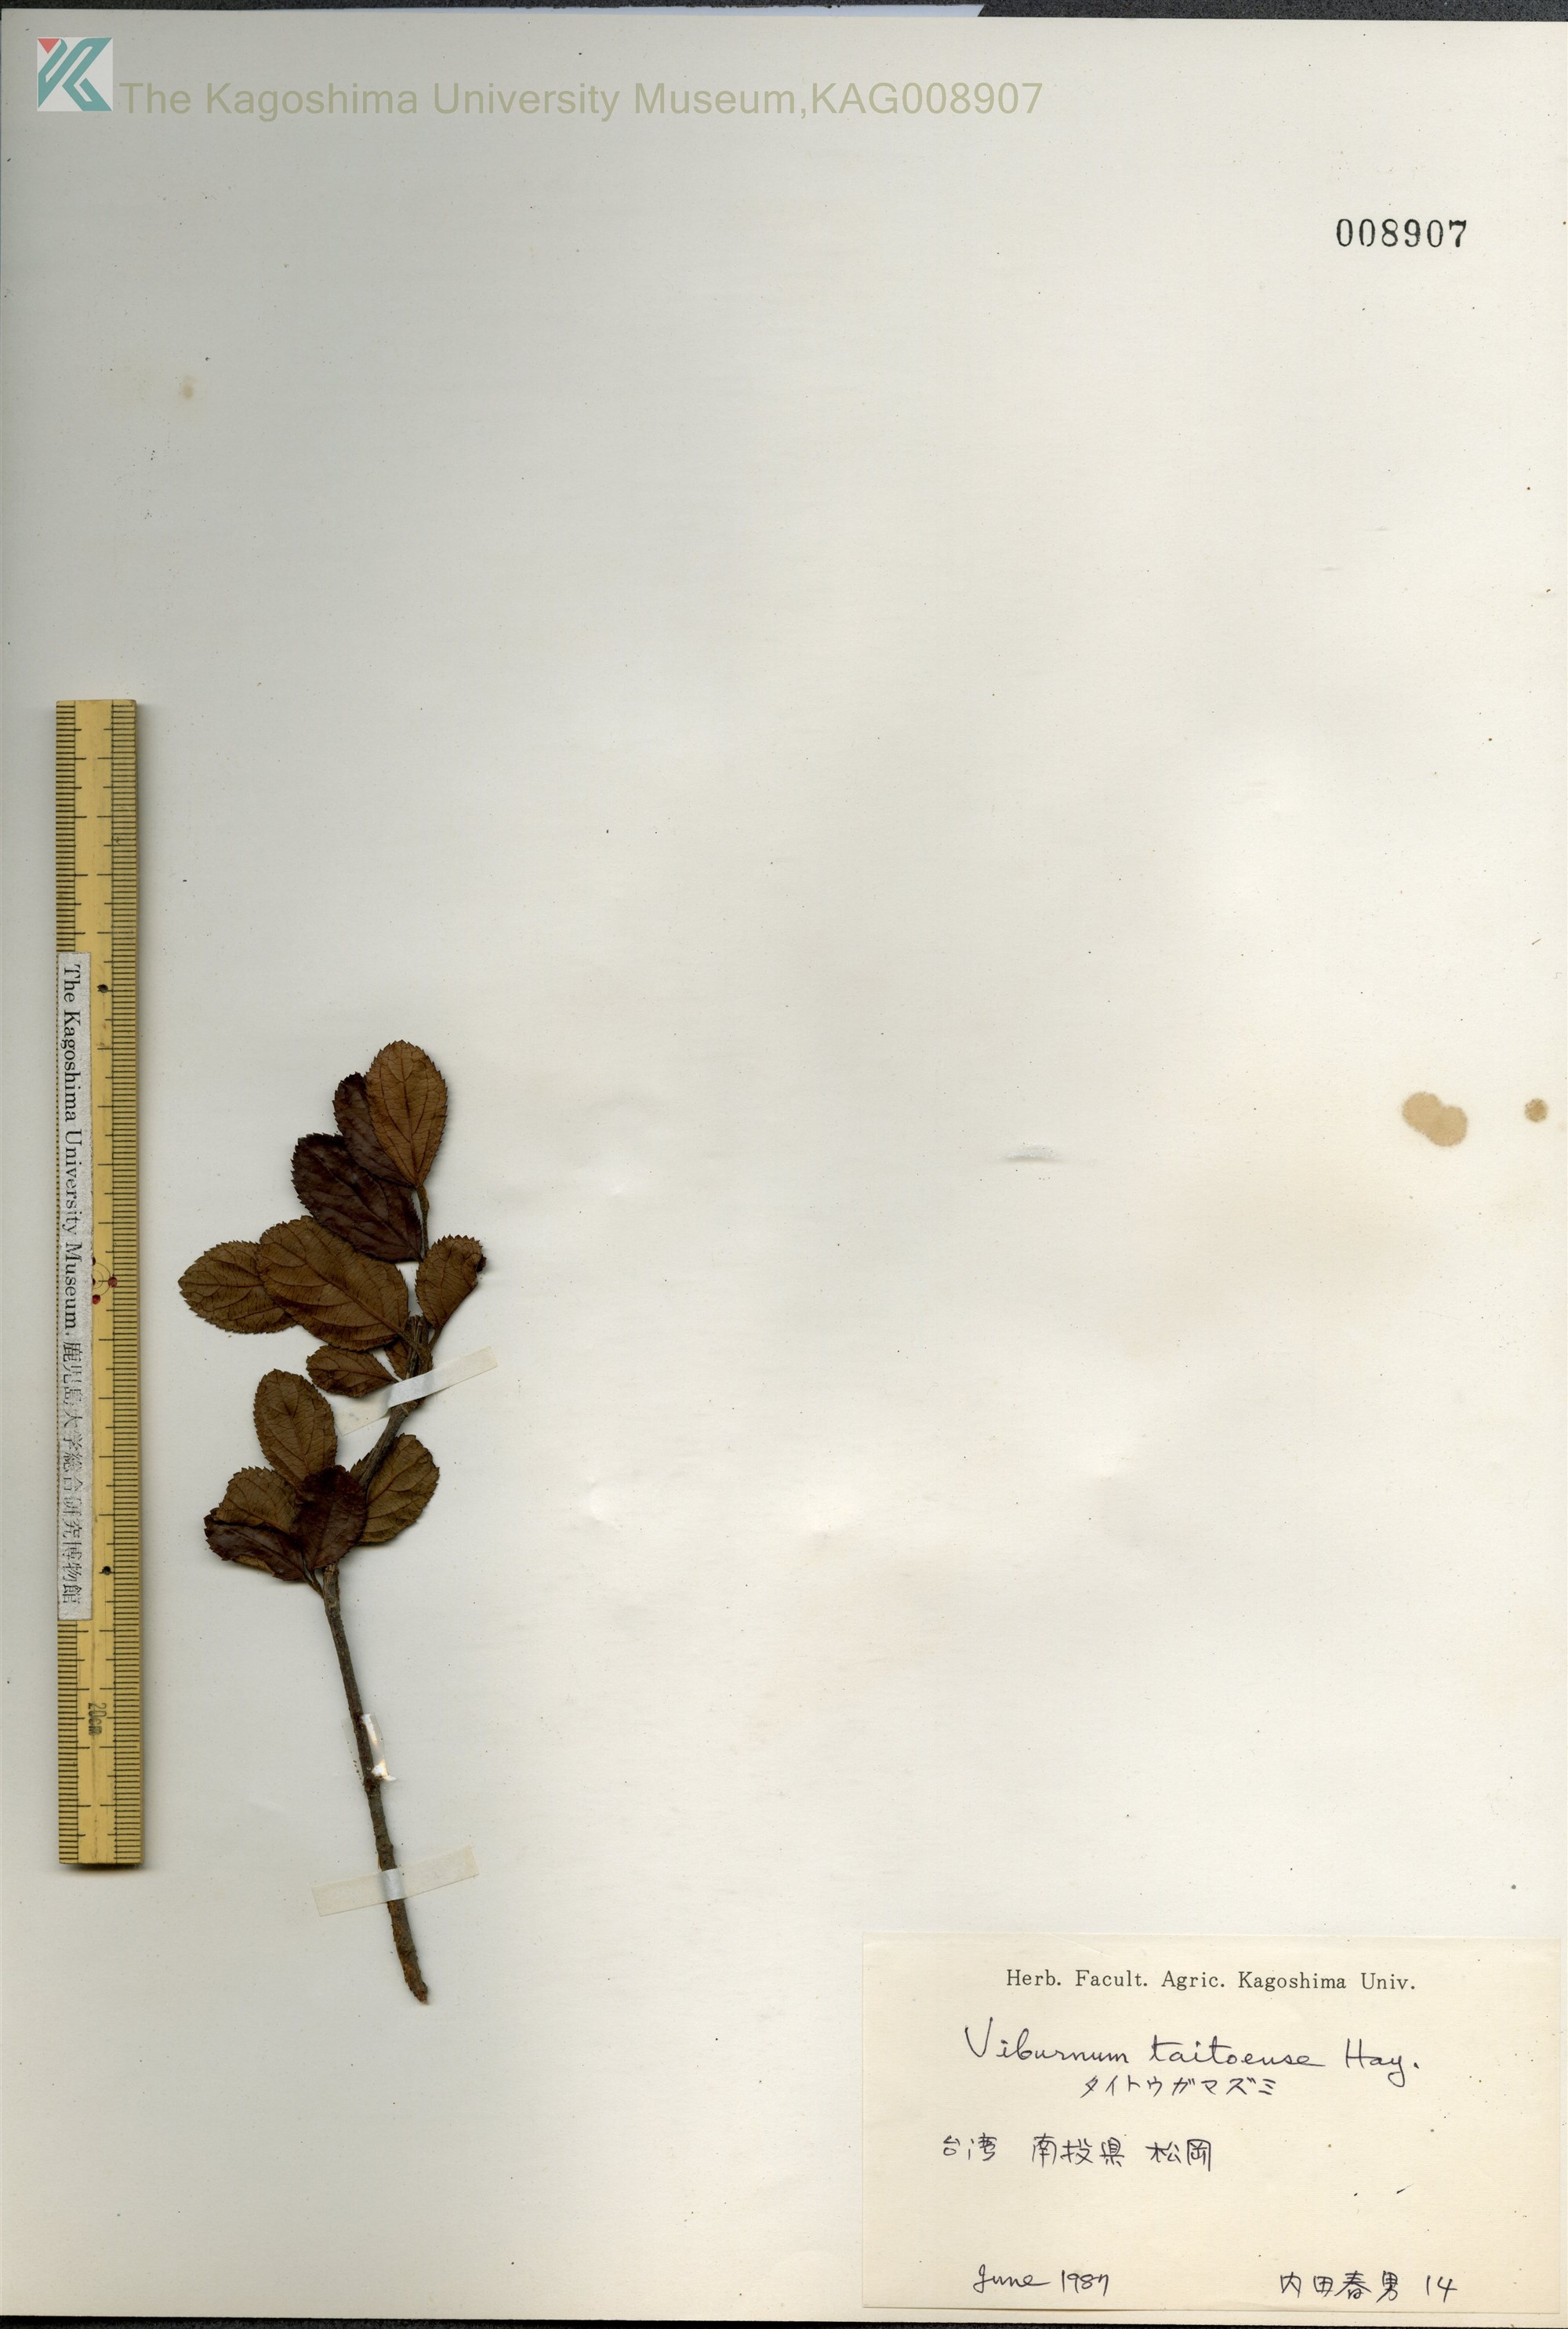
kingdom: Plantae
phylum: Tracheophyta
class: Magnoliopsida
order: Dipsacales
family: Viburnaceae
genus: Viburnum
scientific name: Viburnum taitoense
